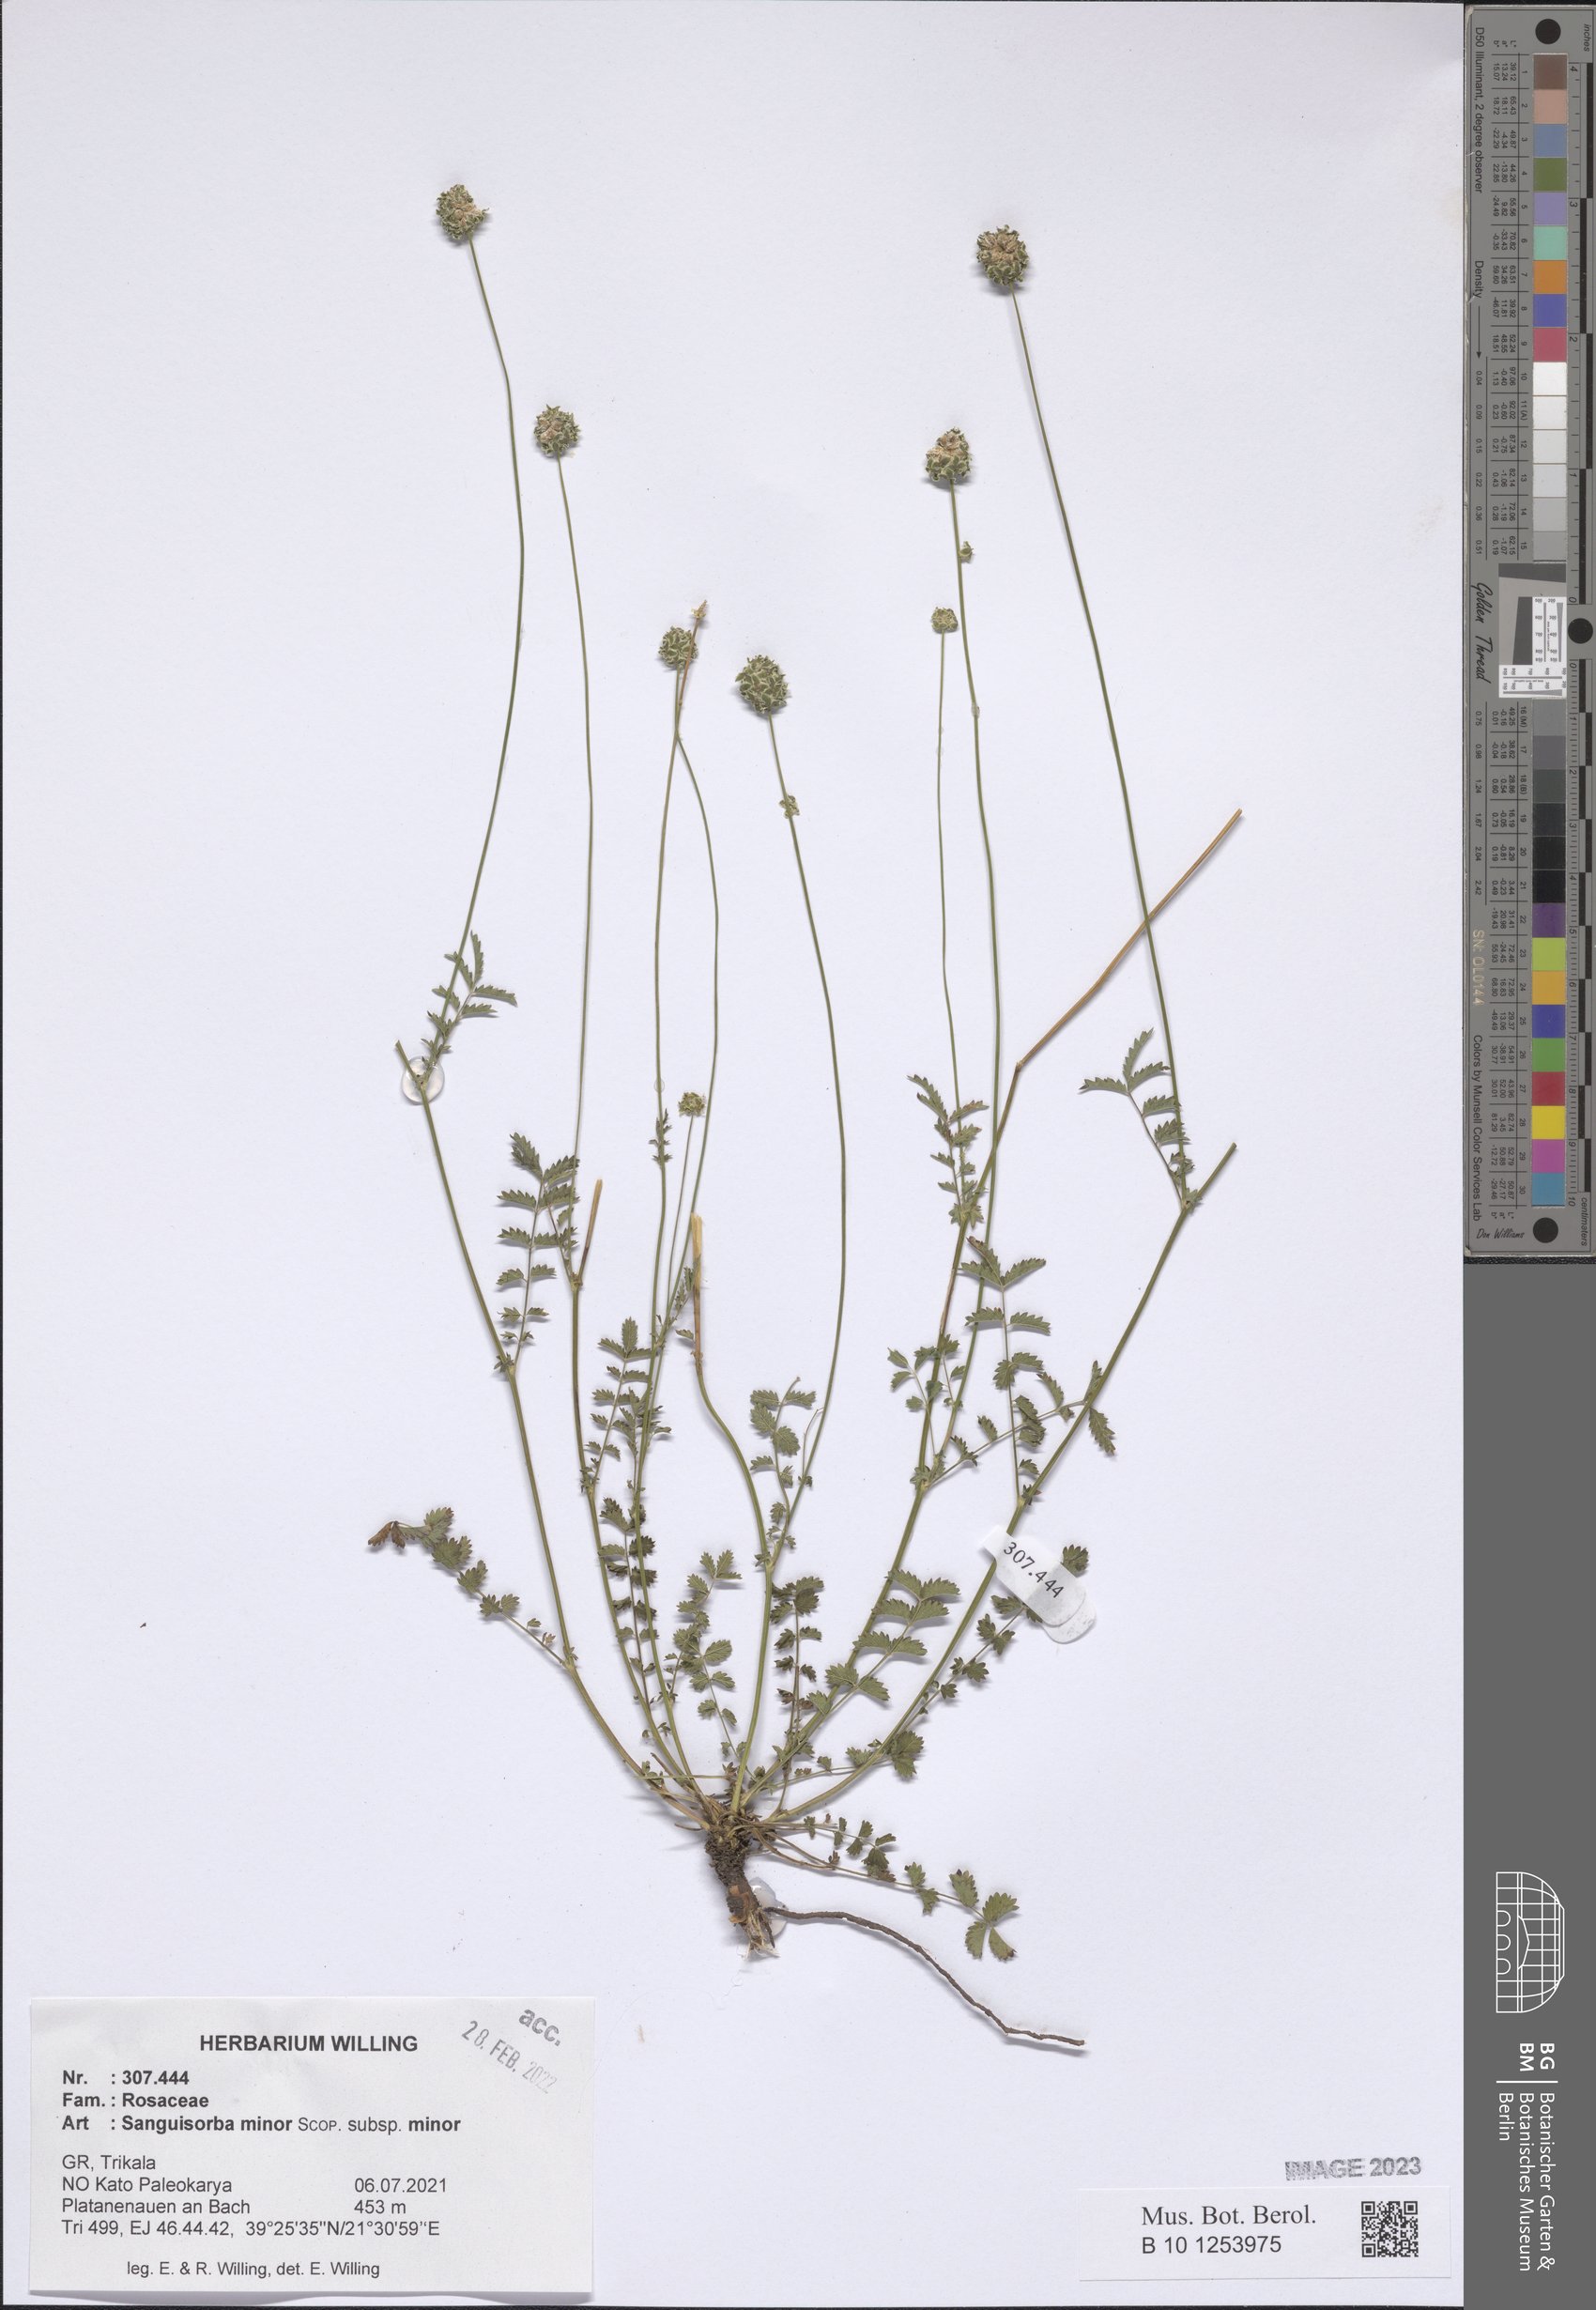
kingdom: Plantae
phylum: Tracheophyta
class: Magnoliopsida
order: Rosales
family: Rosaceae
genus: Poterium
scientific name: Poterium sanguisorba
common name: Salad burnet
